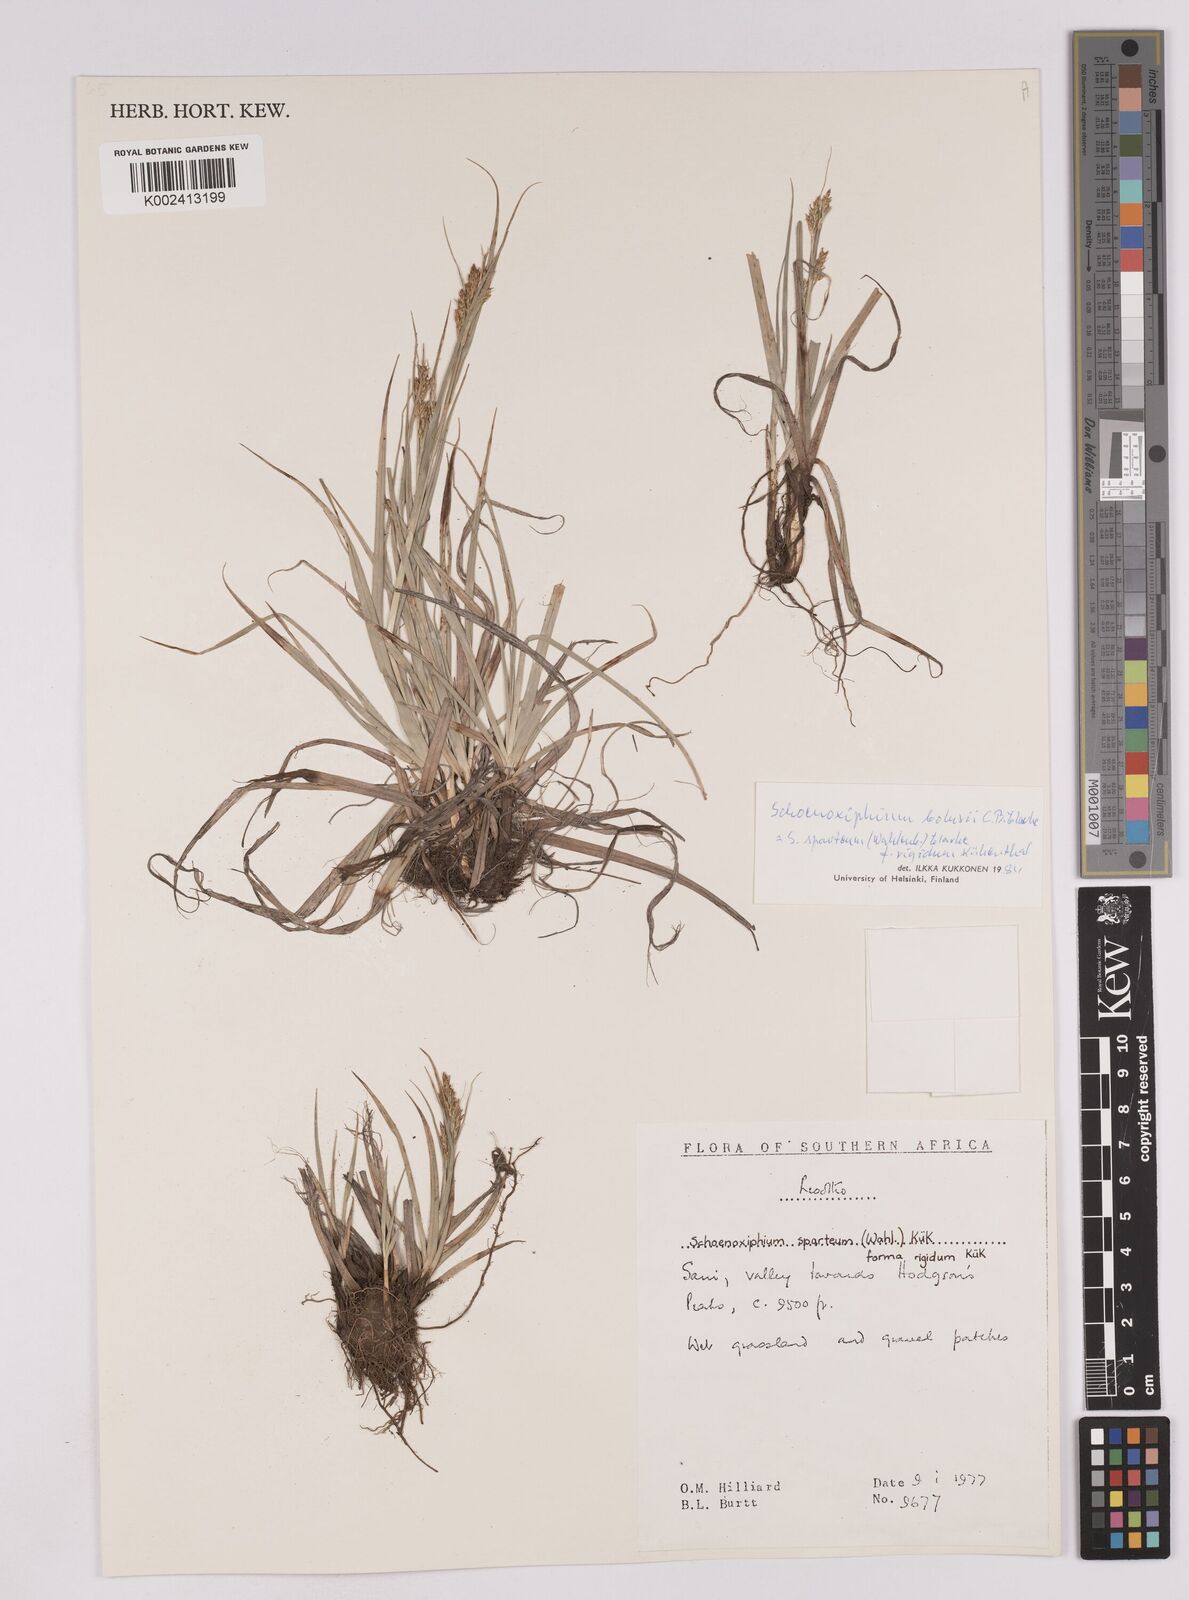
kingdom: Plantae
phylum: Tracheophyta
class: Liliopsida
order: Poales
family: Cyperaceae
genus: Carex
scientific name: Carex spartea
